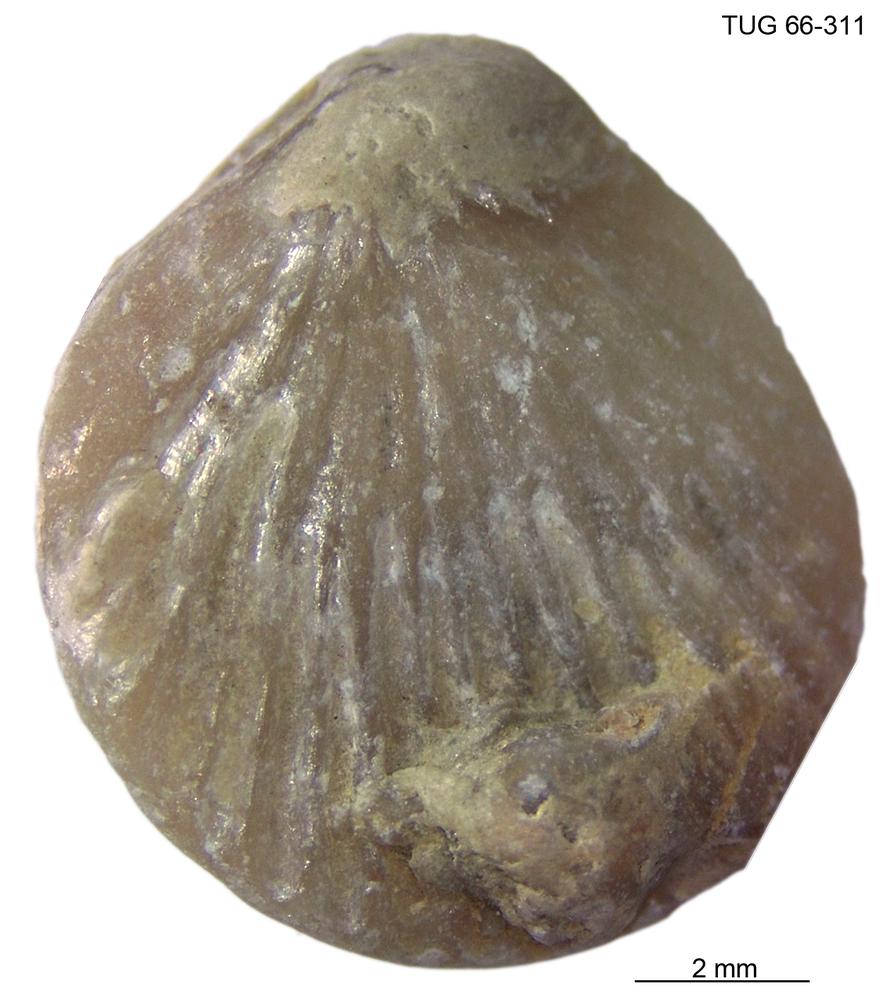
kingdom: Animalia
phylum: Brachiopoda
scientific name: Brachiopoda
